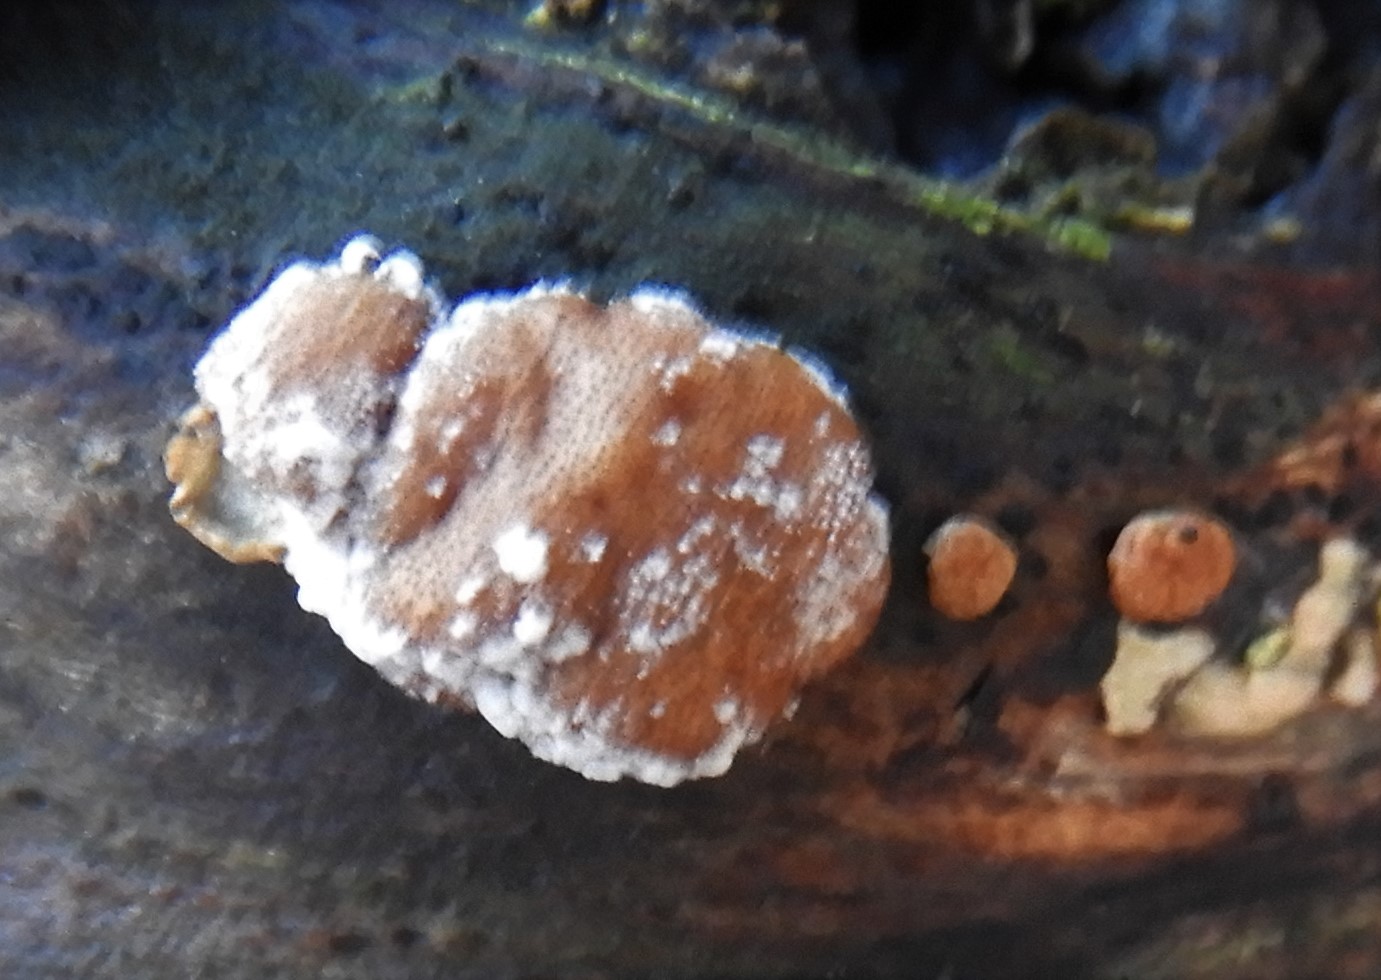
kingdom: Fungi
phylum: Ascomycota
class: Sordariomycetes
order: Hypocreales
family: Hypocreaceae
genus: Trichoderma
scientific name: Trichoderma europaeum
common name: rosabrun kødkerne
